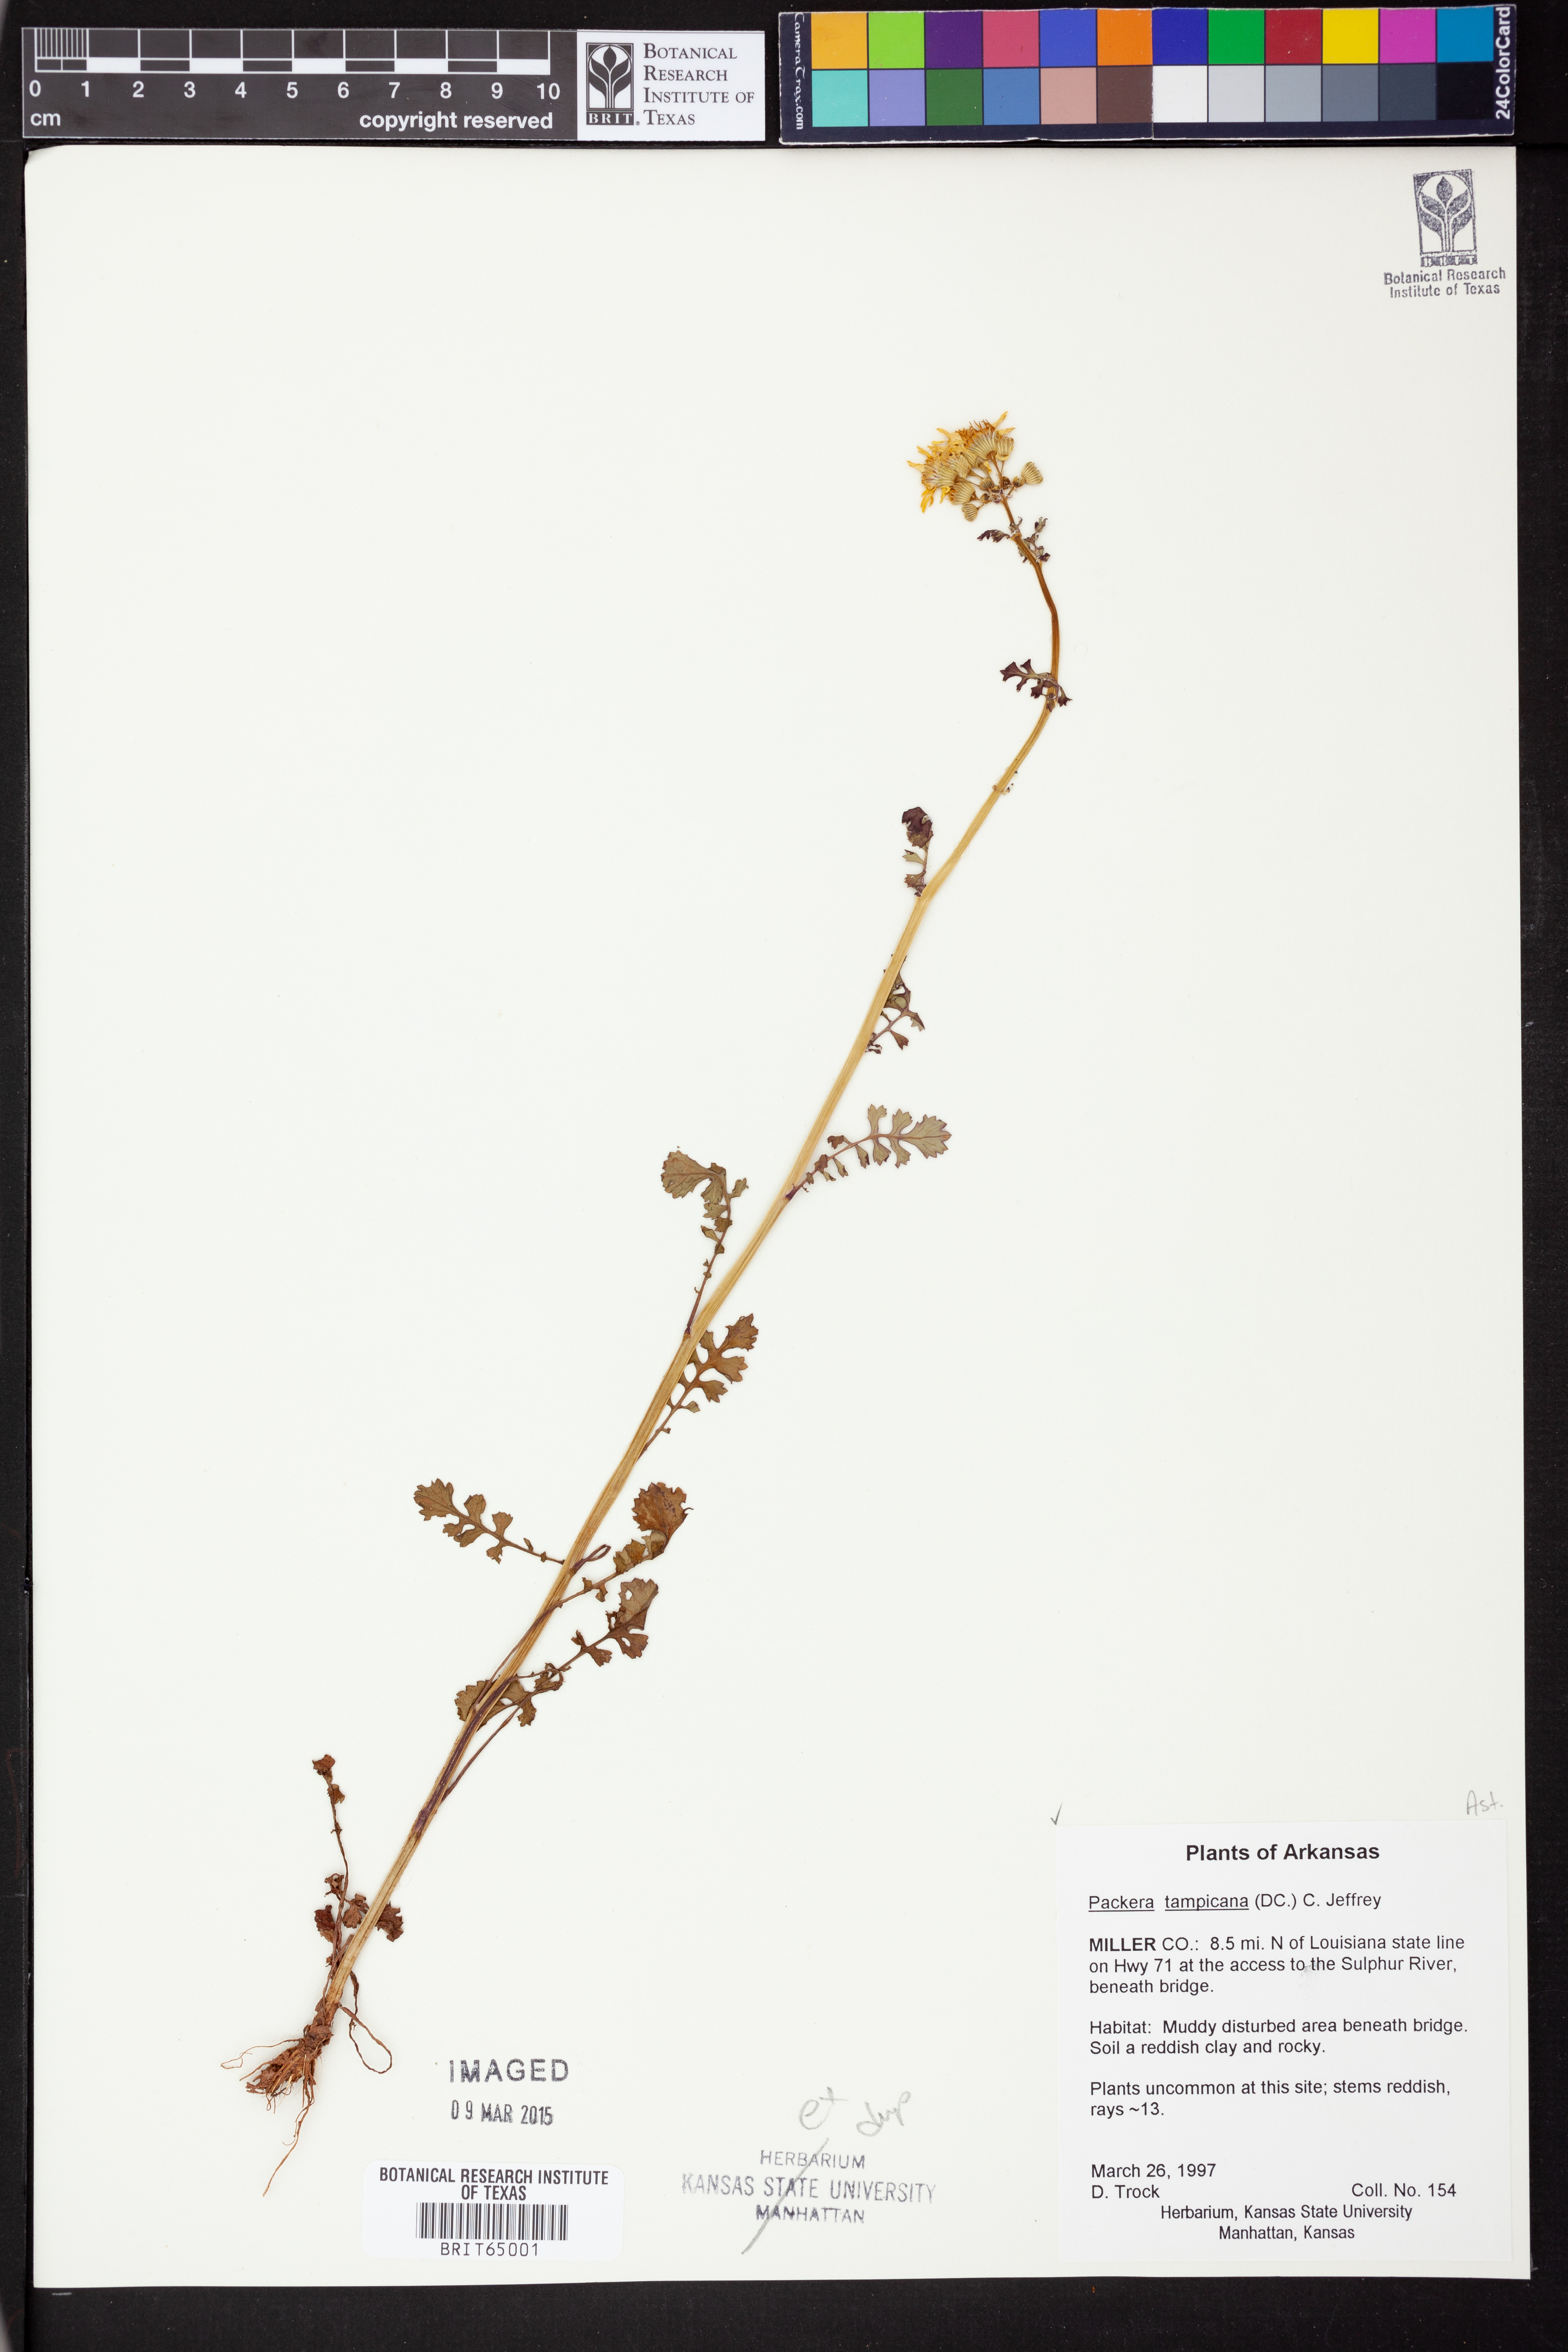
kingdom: Plantae
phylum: Tracheophyta
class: Magnoliopsida
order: Asterales
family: Asteraceae
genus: Packera
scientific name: Packera tampicana
